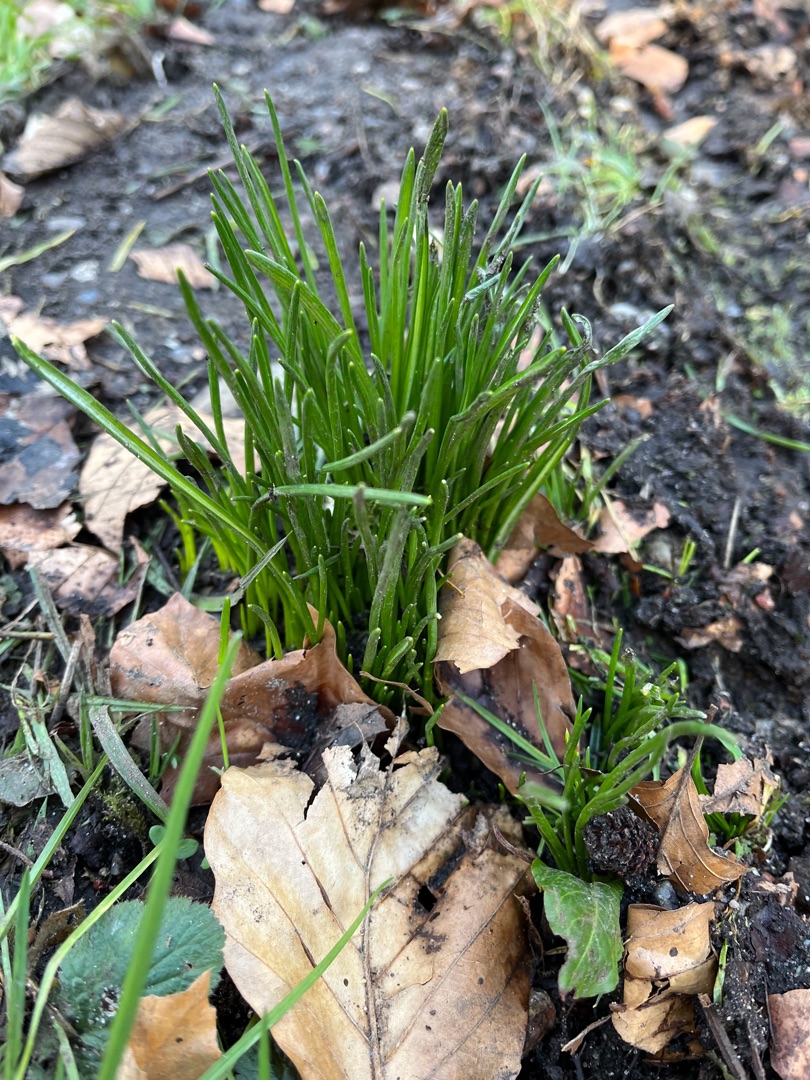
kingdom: Plantae
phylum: Tracheophyta
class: Liliopsida
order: Asparagales
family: Asparagaceae
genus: Ornithogalum
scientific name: Ornithogalum umbellatum
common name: Kost-fuglemælk
